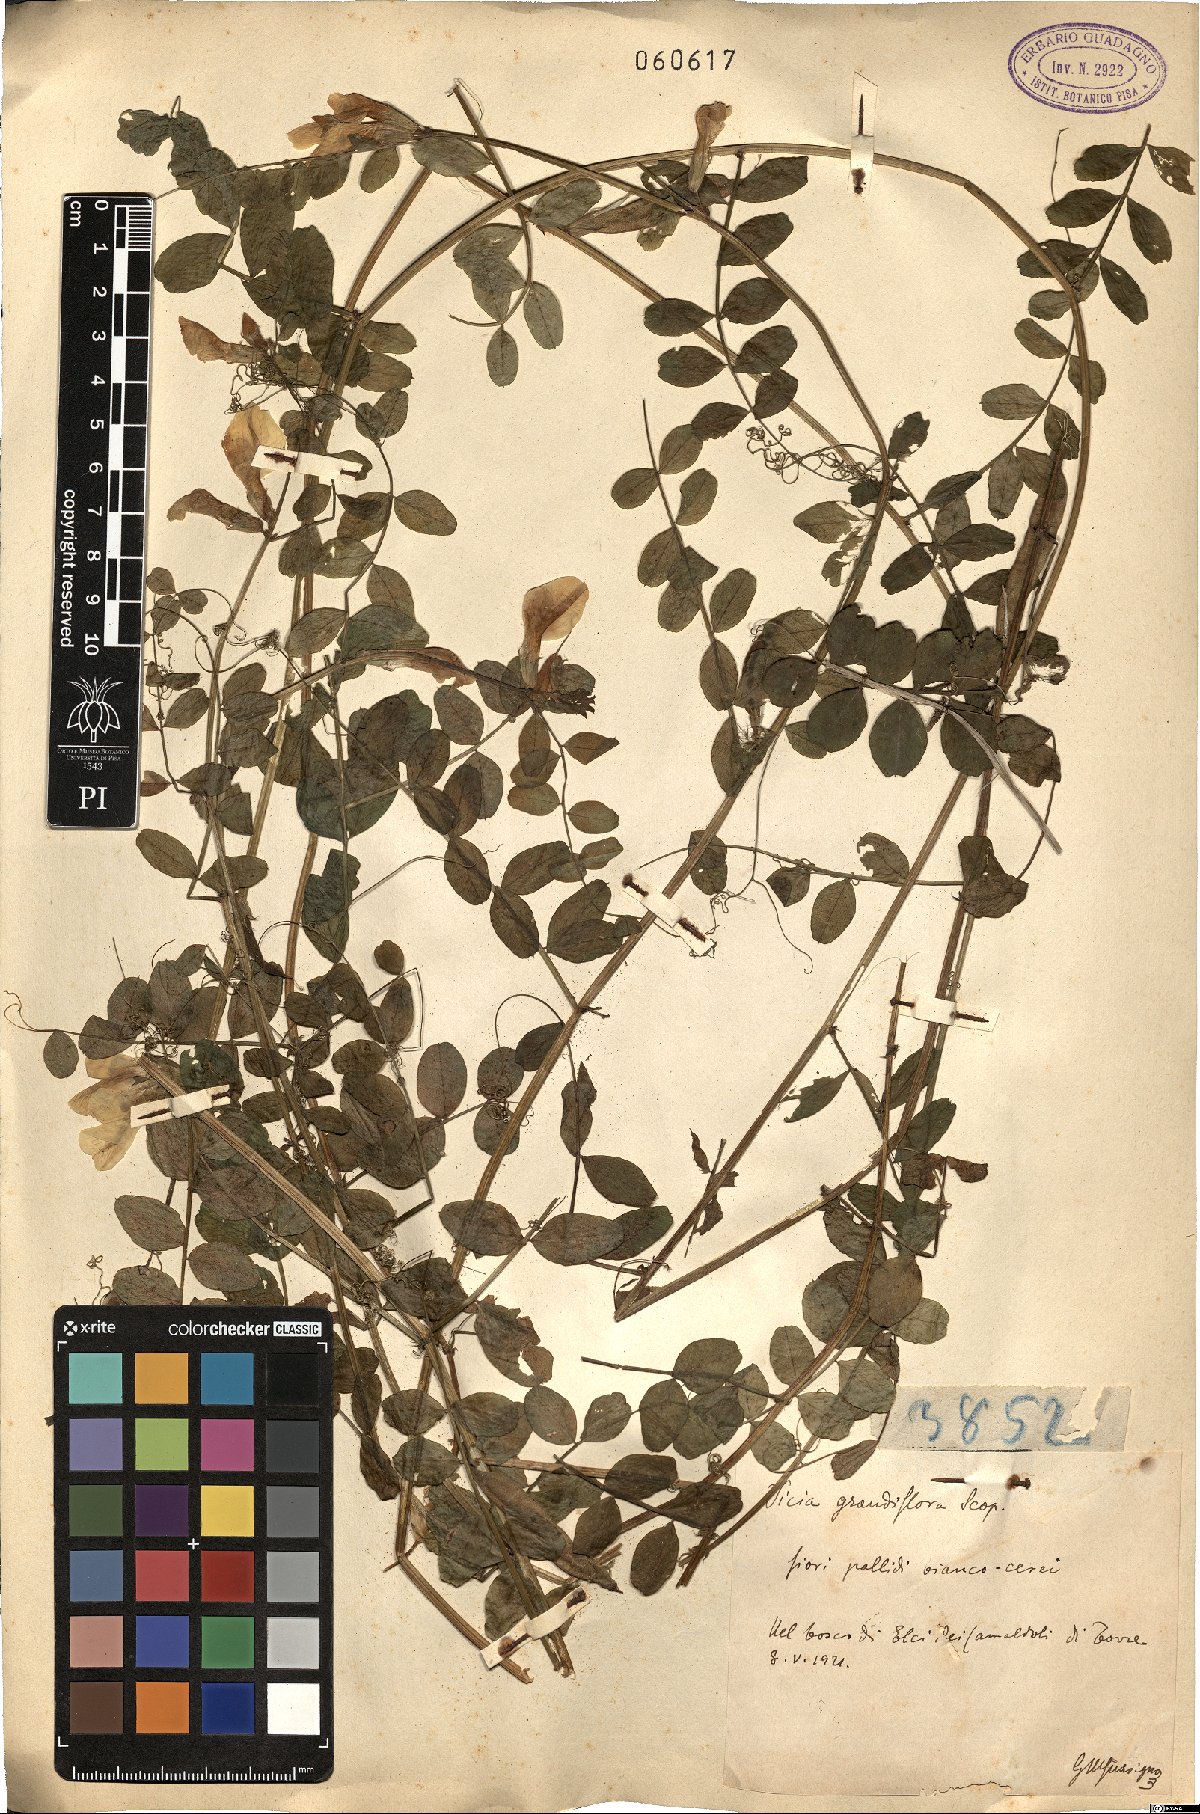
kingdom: Plantae
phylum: Tracheophyta
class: Magnoliopsida
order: Fabales
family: Fabaceae
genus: Vicia
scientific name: Vicia grandiflora
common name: Large yellow vetch
